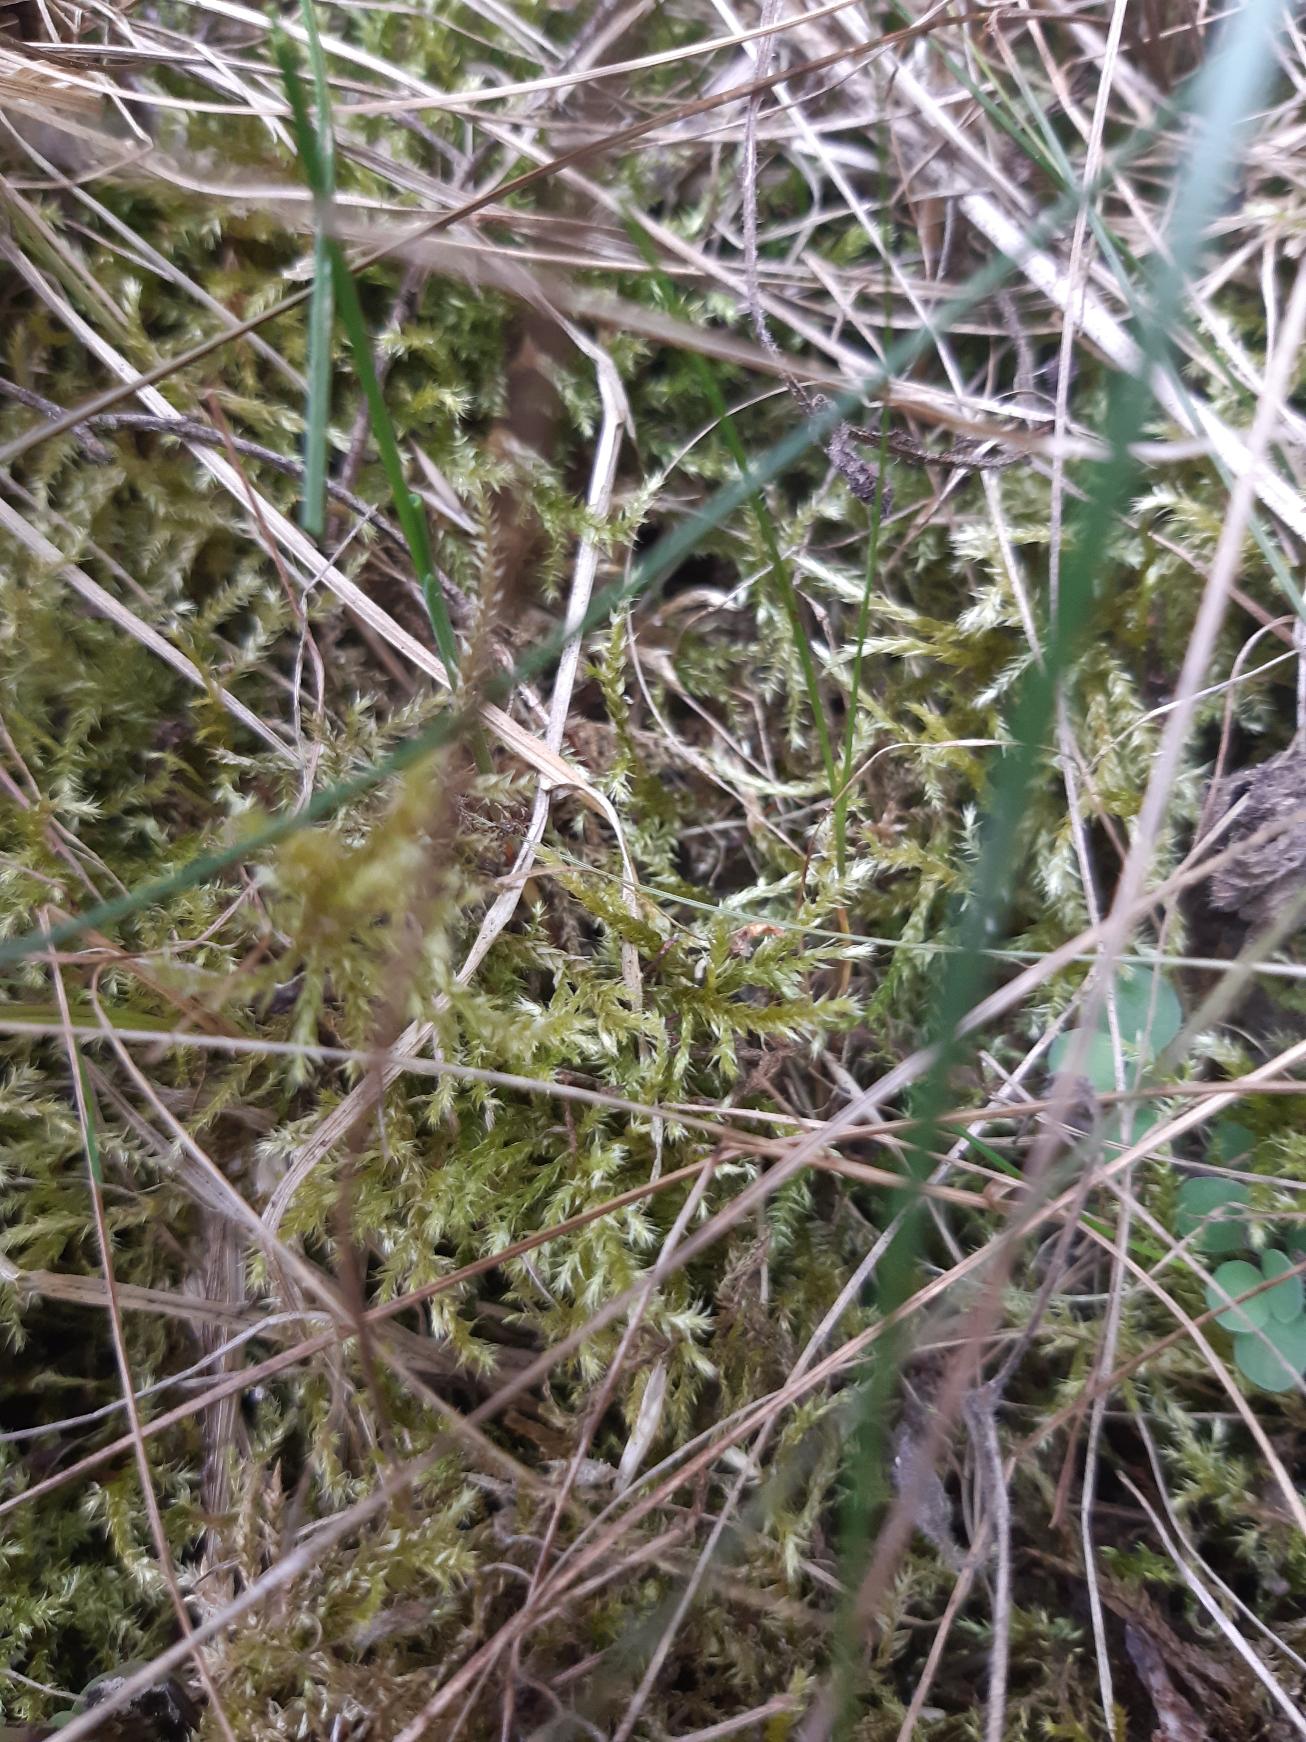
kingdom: Plantae
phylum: Bryophyta
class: Bryopsida
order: Hypnales
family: Brachytheciaceae
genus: Brachythecium
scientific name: Brachythecium
